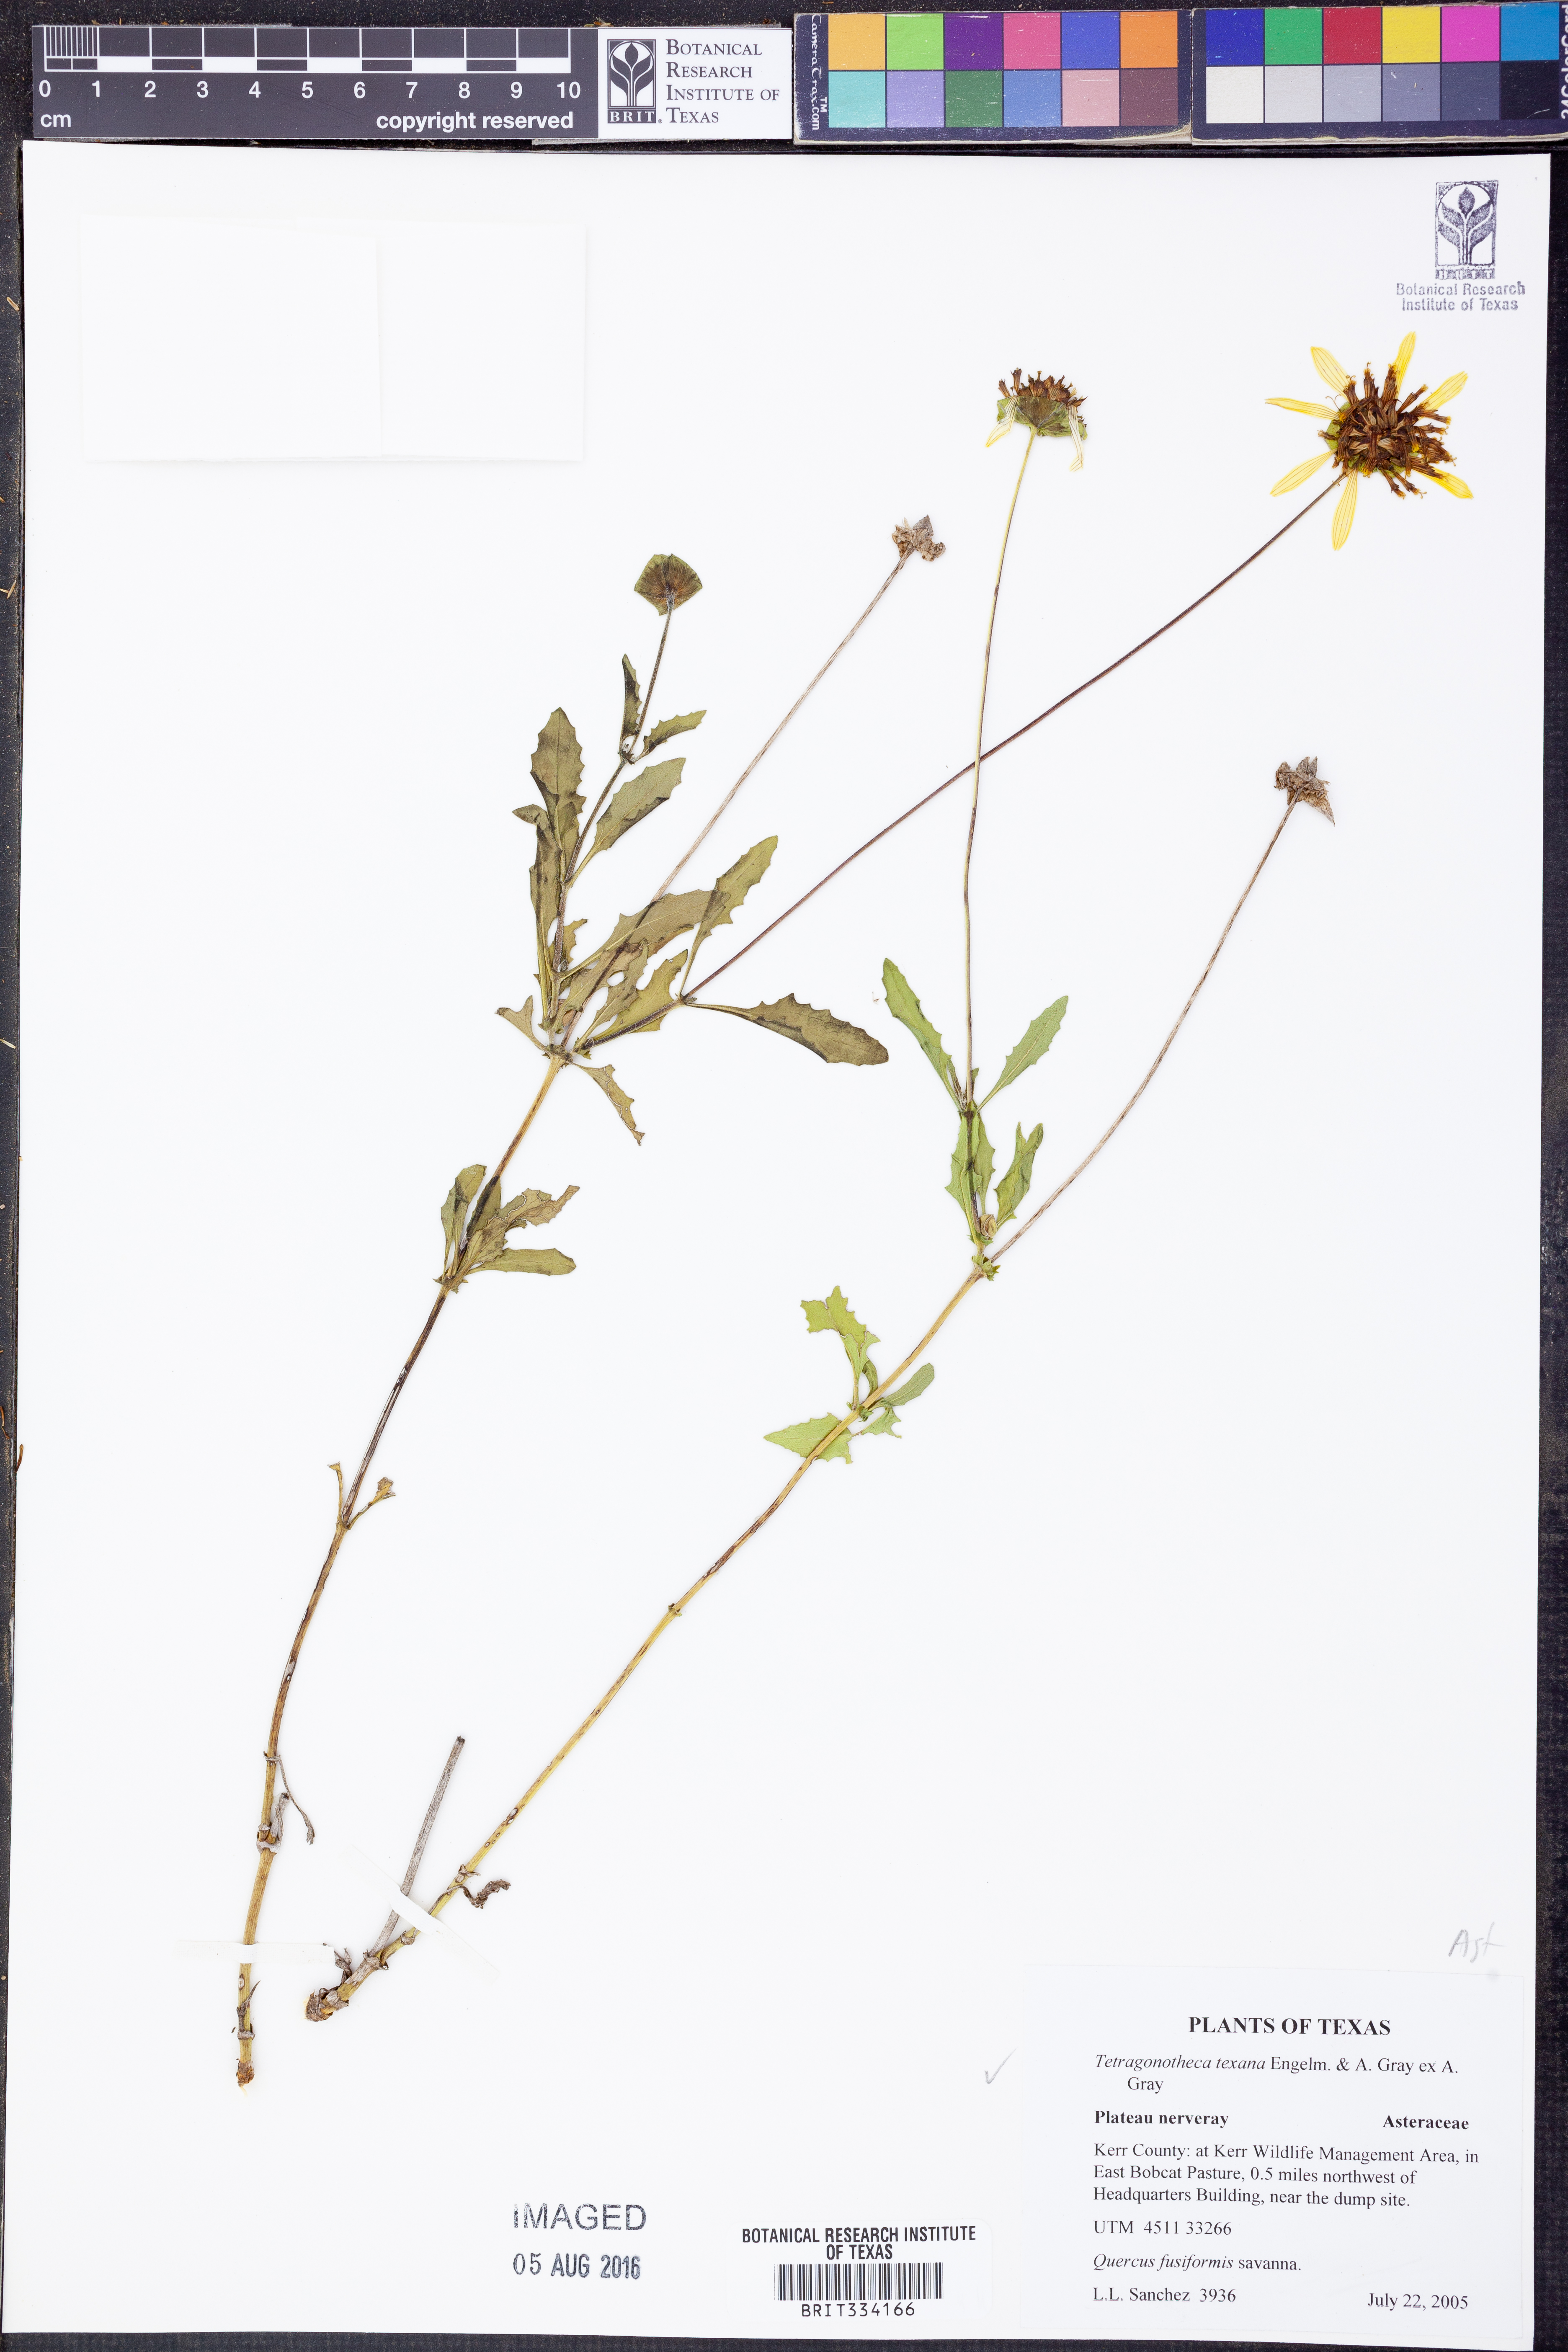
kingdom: Plantae
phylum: Tracheophyta
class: Magnoliopsida
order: Asterales
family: Asteraceae
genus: Tetragonotheca
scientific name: Tetragonotheca texana
